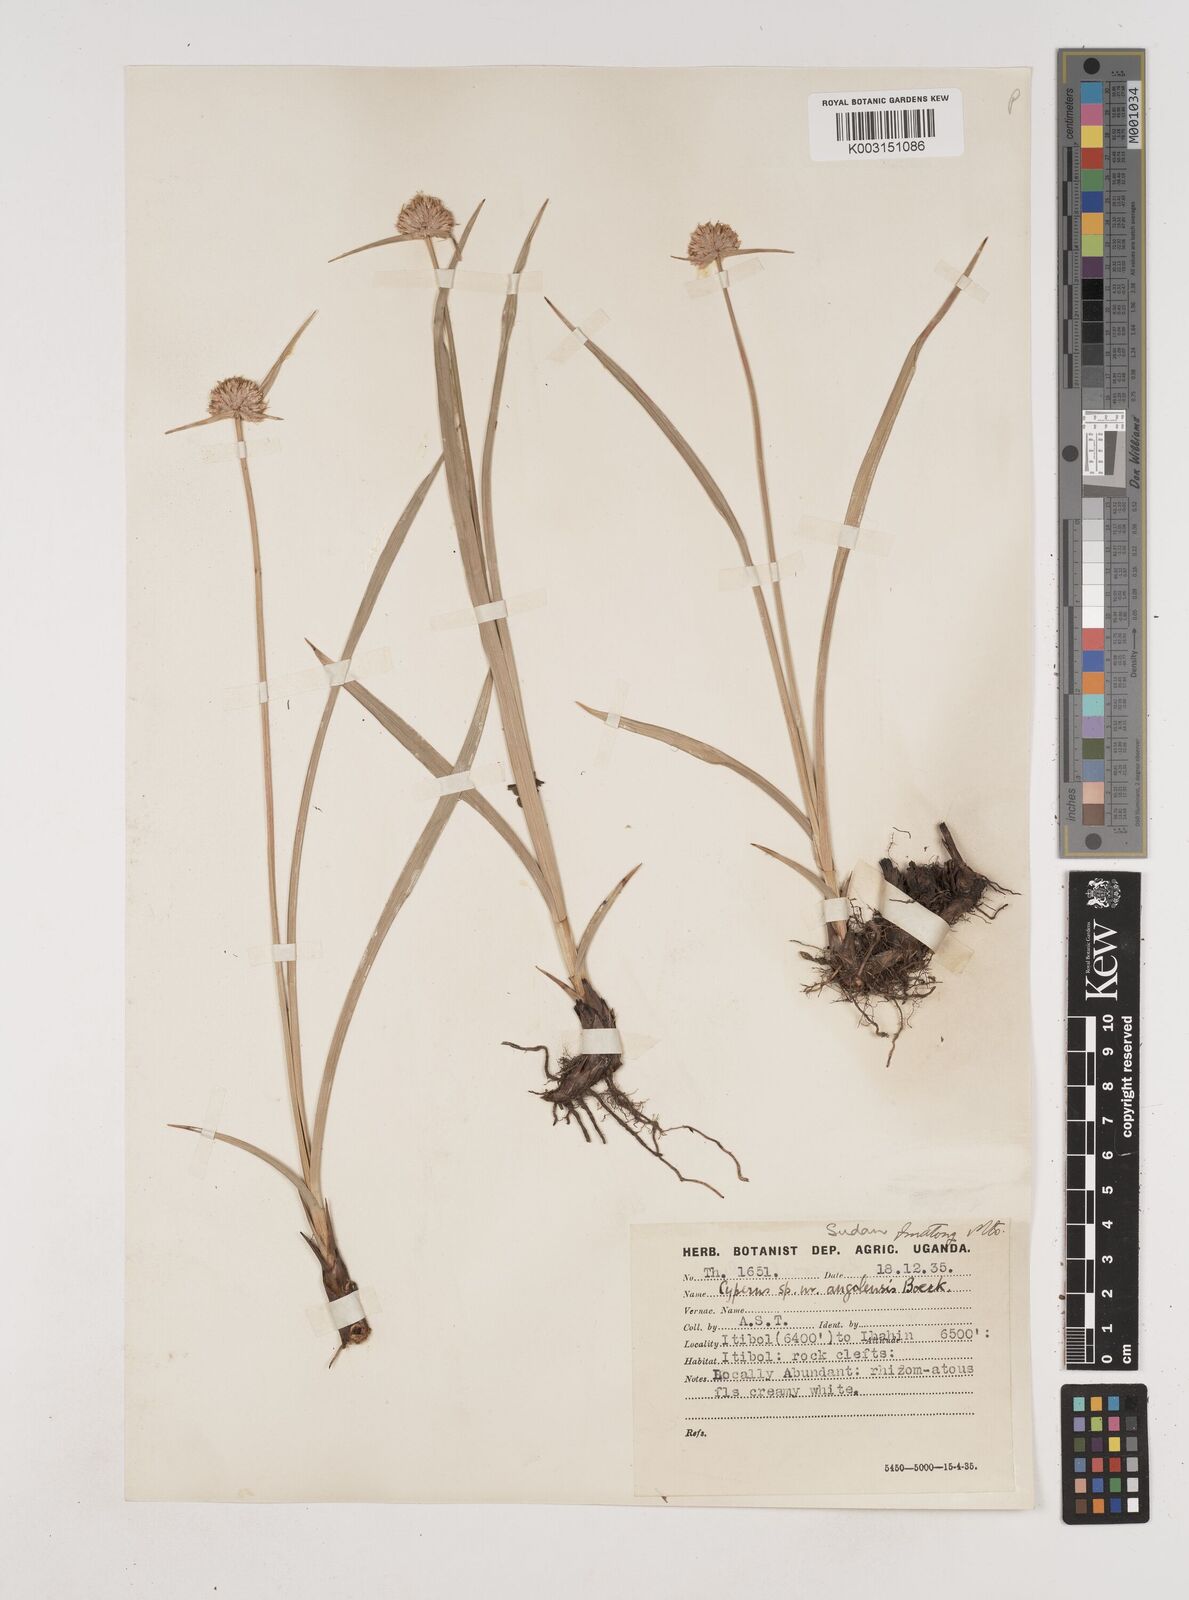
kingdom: Plantae
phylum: Tracheophyta
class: Liliopsida
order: Poales
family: Cyperaceae
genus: Cyperus
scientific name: Cyperus angolensis
